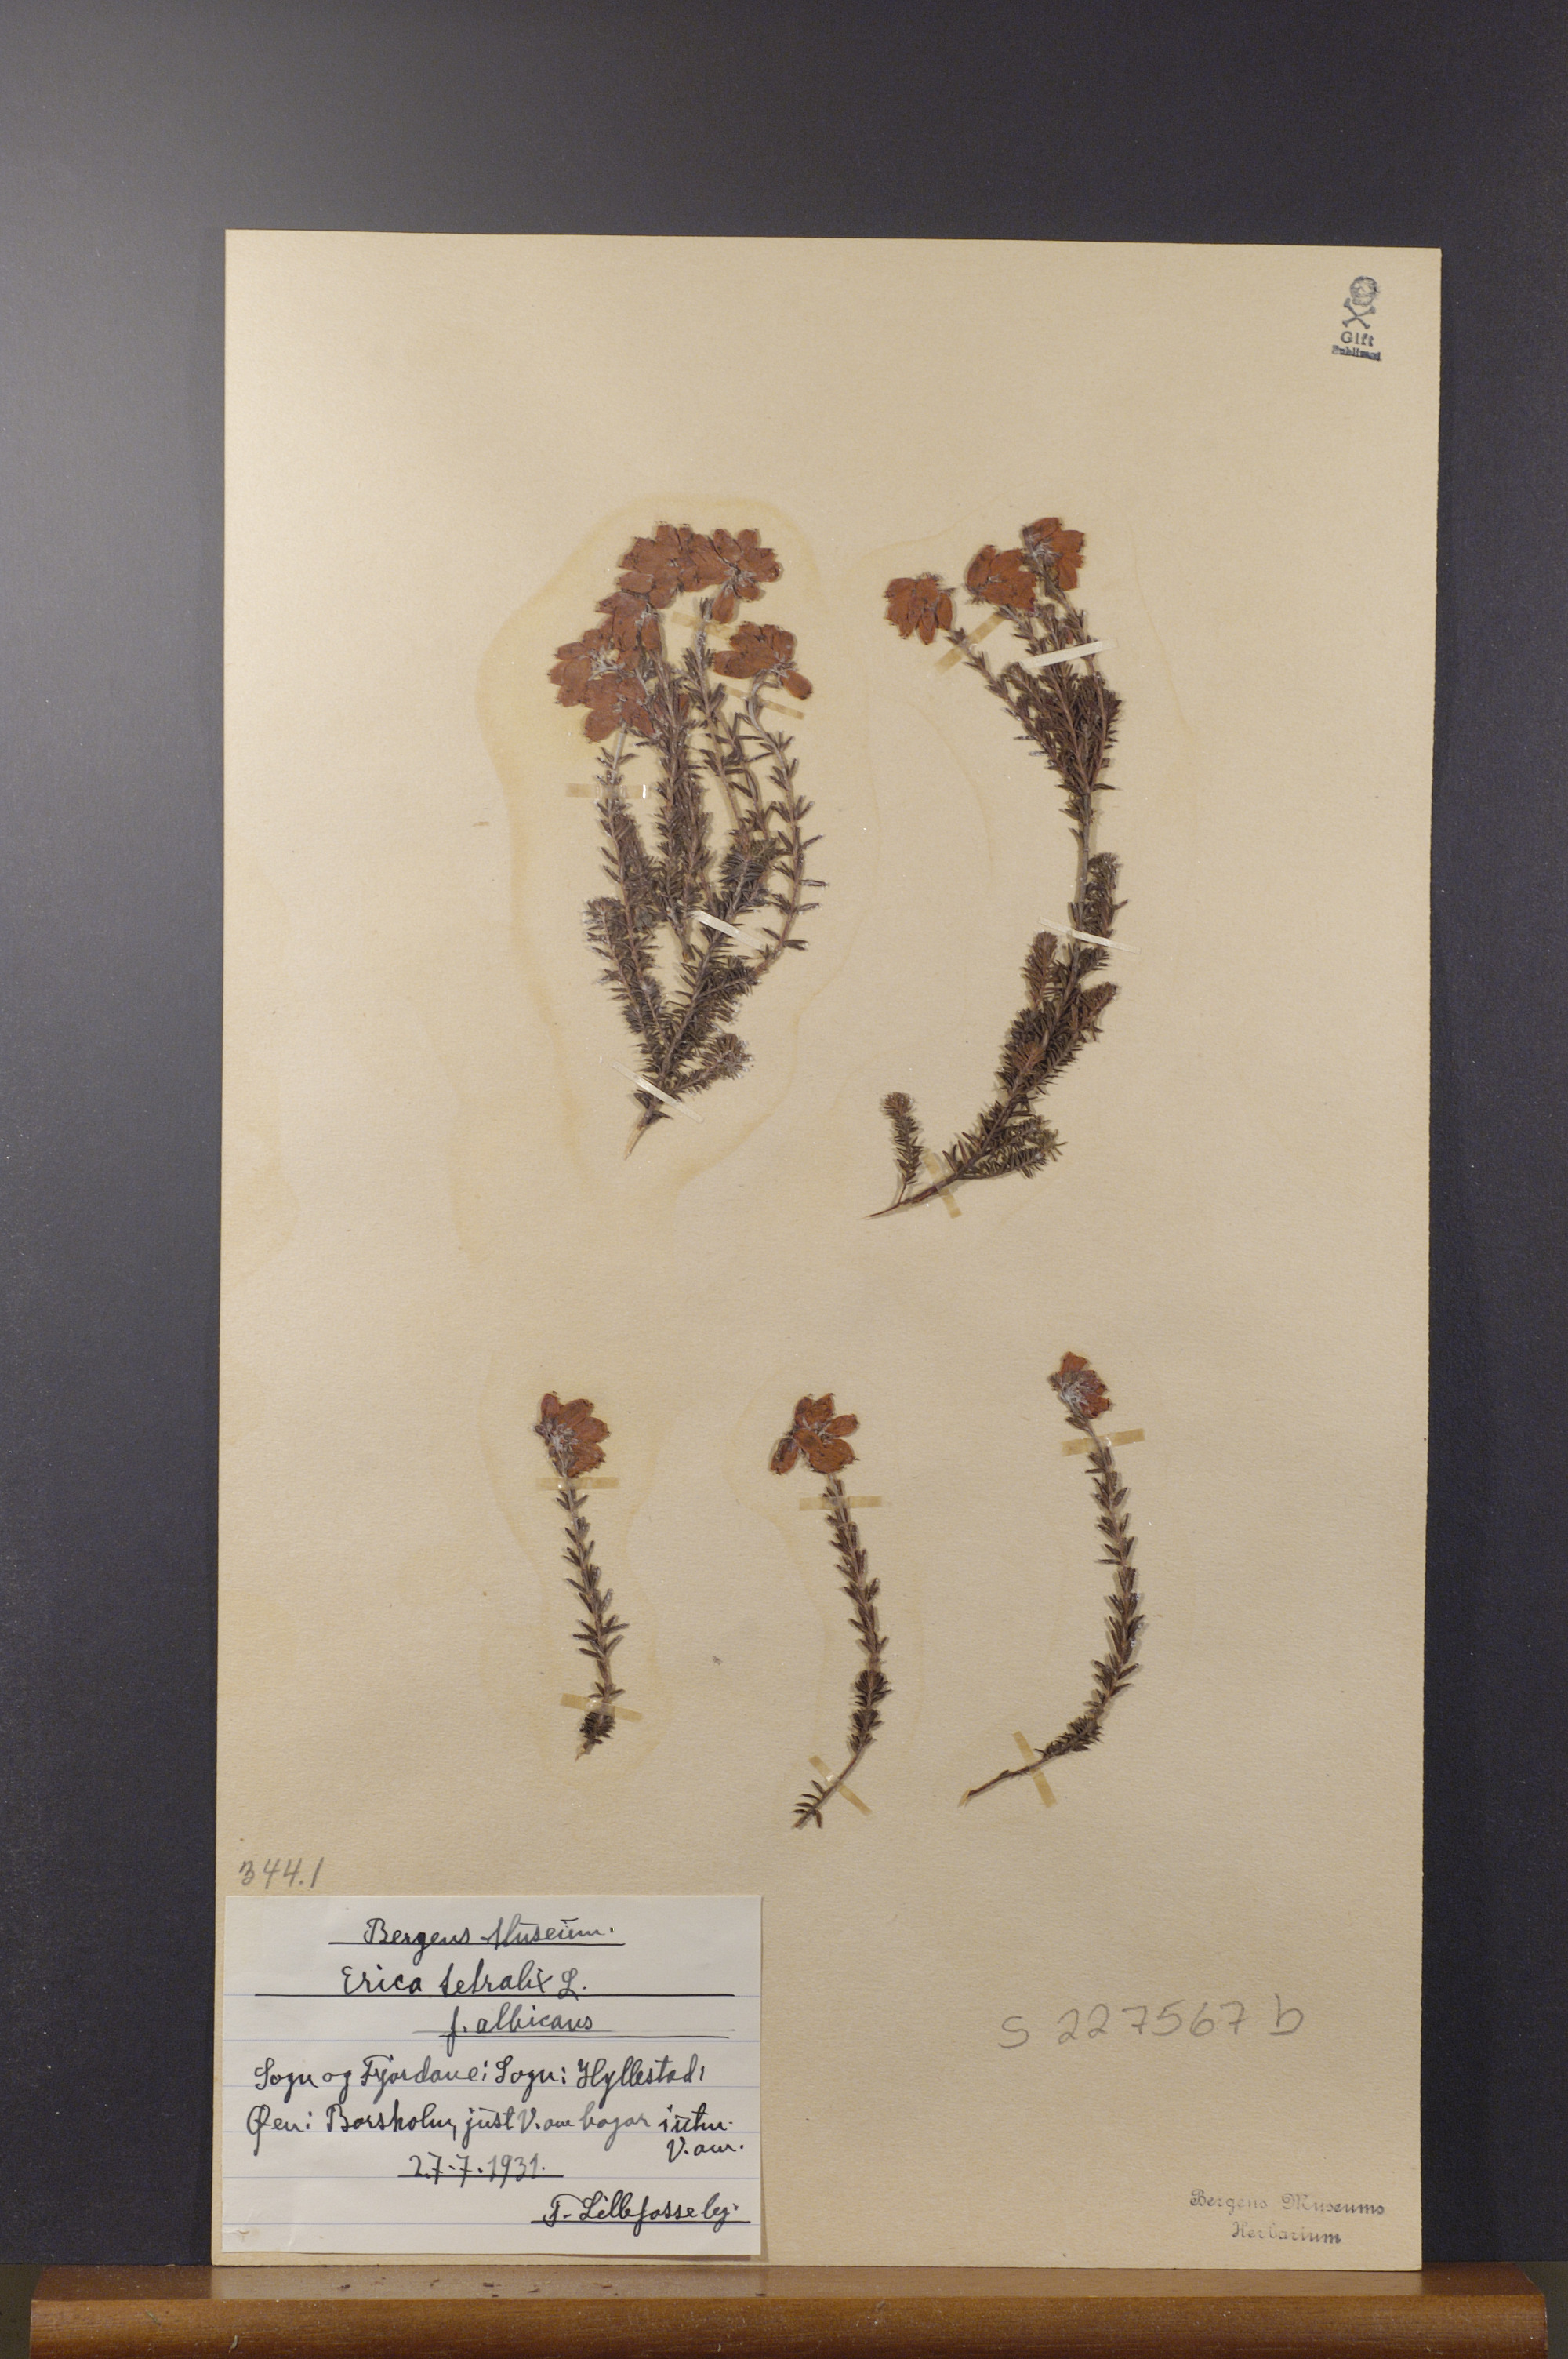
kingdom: Plantae
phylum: Tracheophyta
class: Magnoliopsida
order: Ericales
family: Ericaceae
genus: Erica
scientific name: Erica tetralix
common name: Cross-leaved heath
